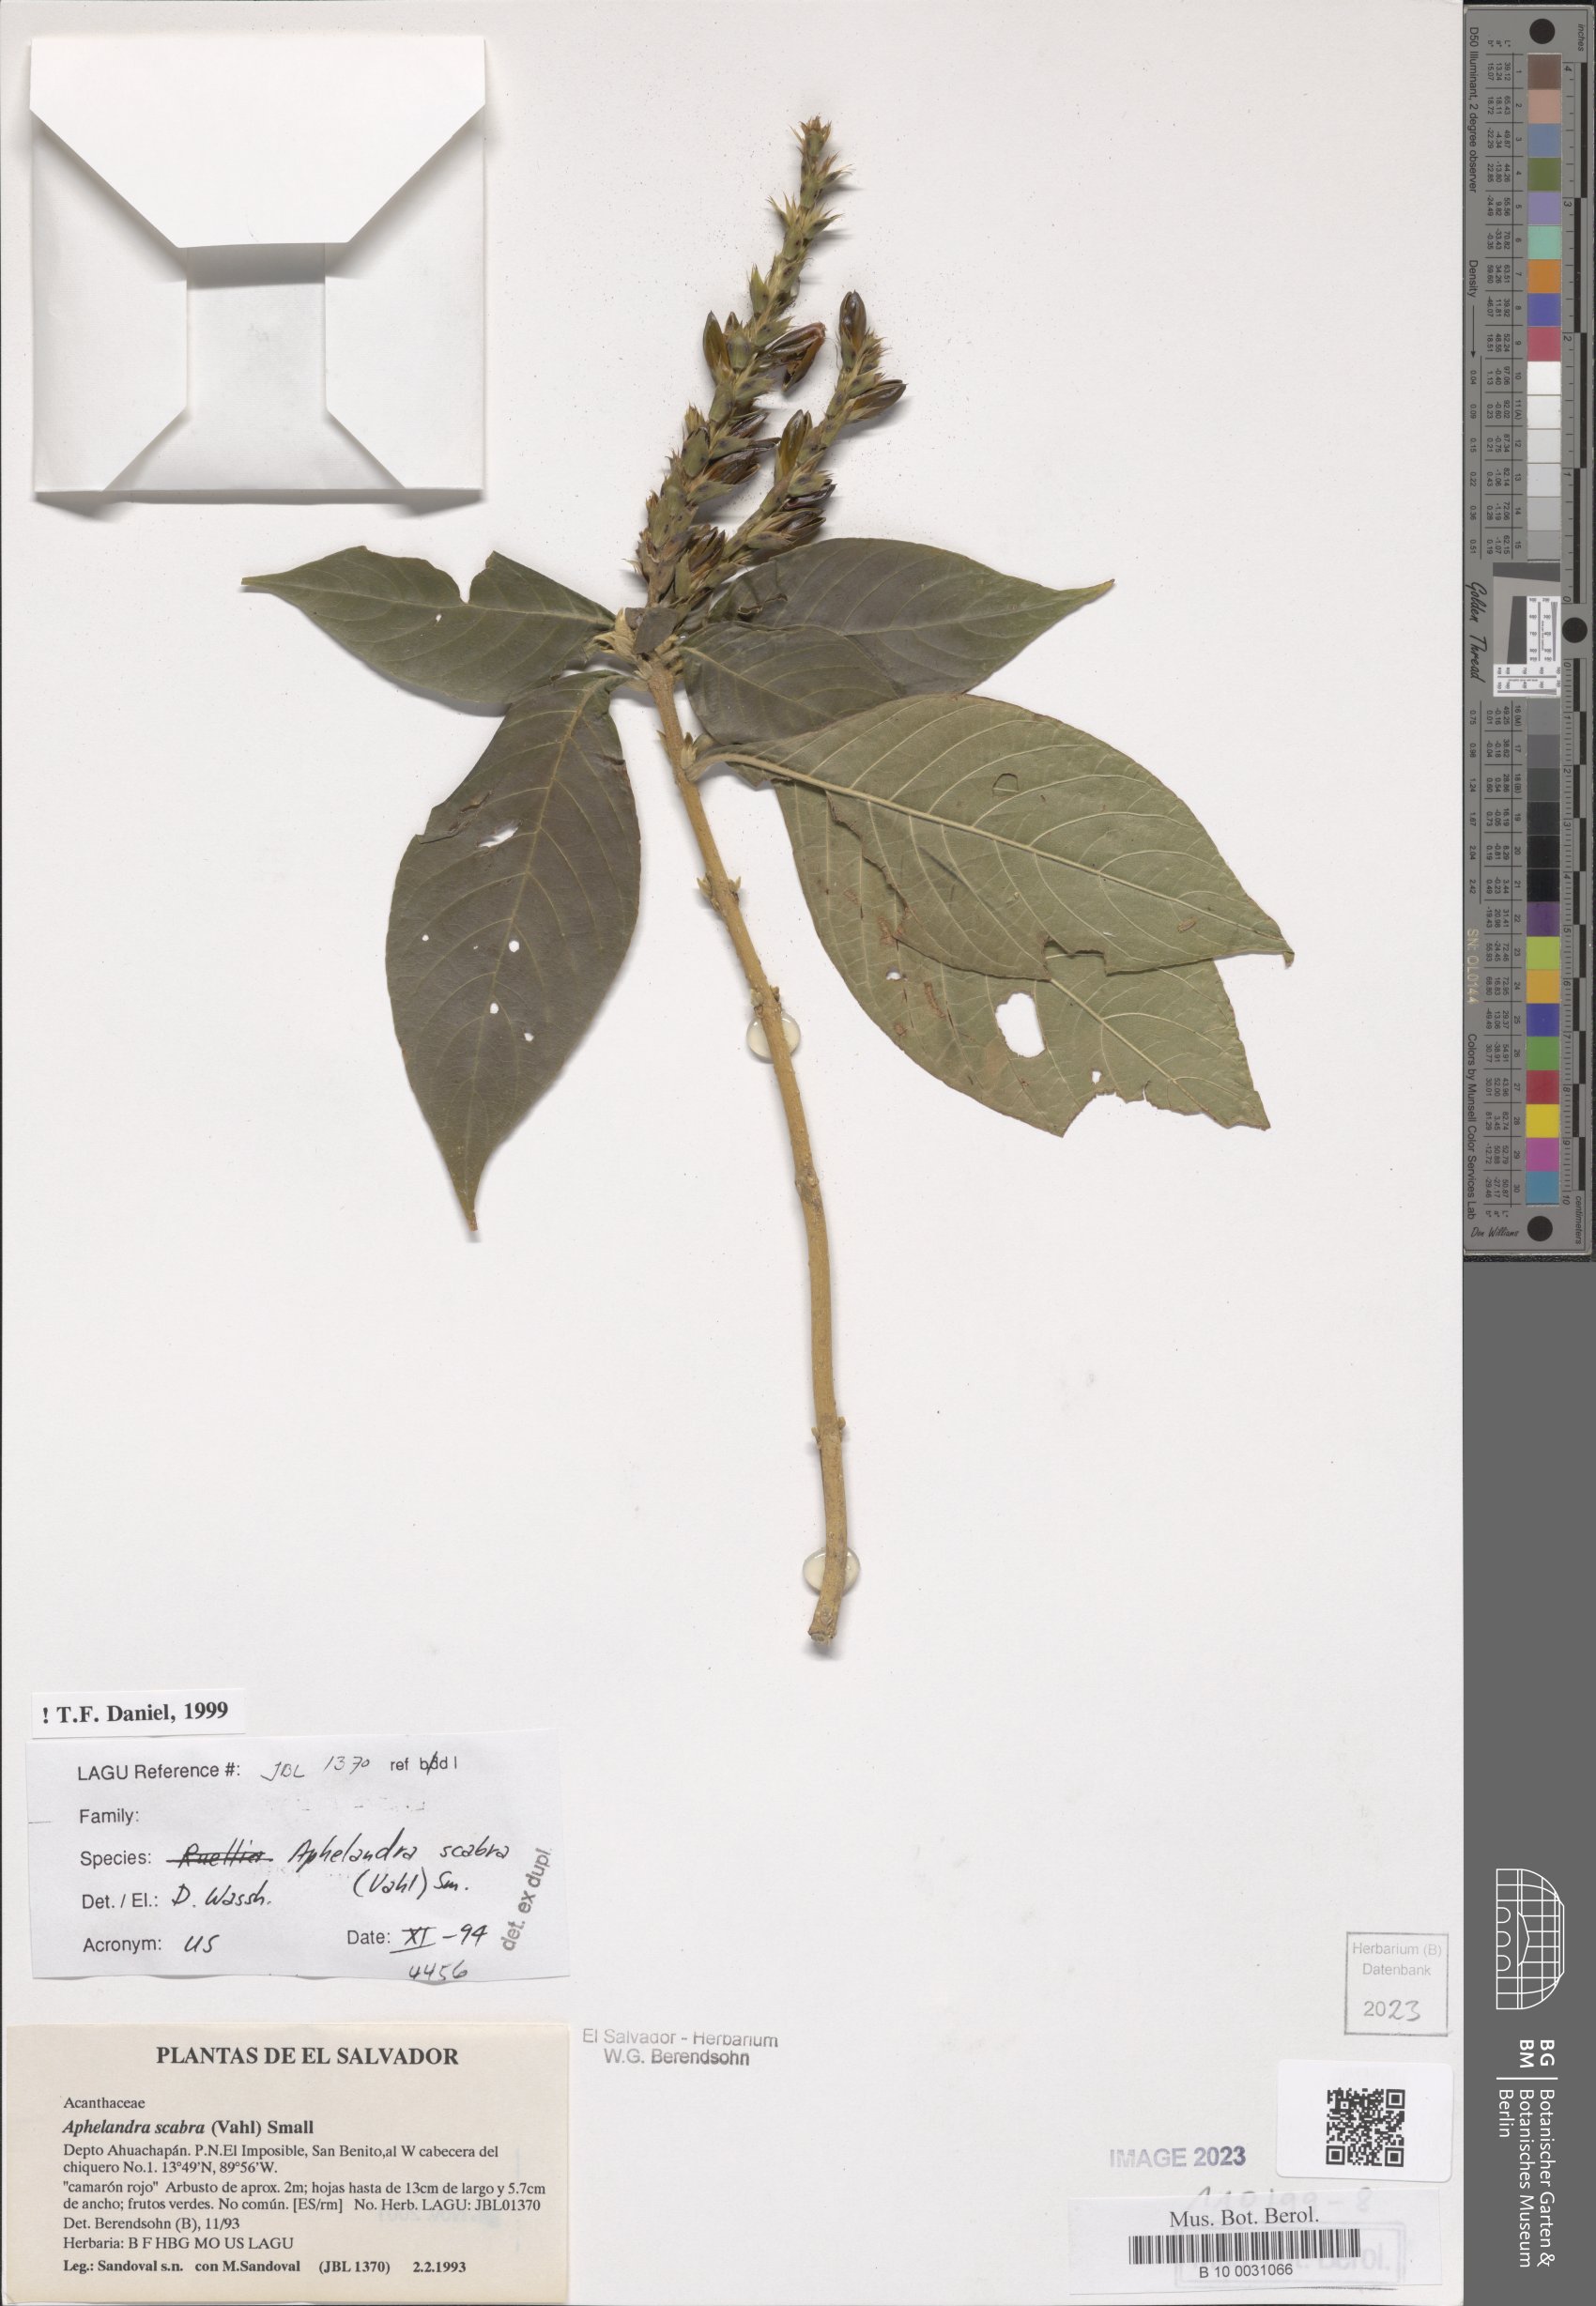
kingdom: Plantae
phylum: Tracheophyta
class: Magnoliopsida
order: Lamiales
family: Acanthaceae
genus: Aphelandra
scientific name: Aphelandra scabra
